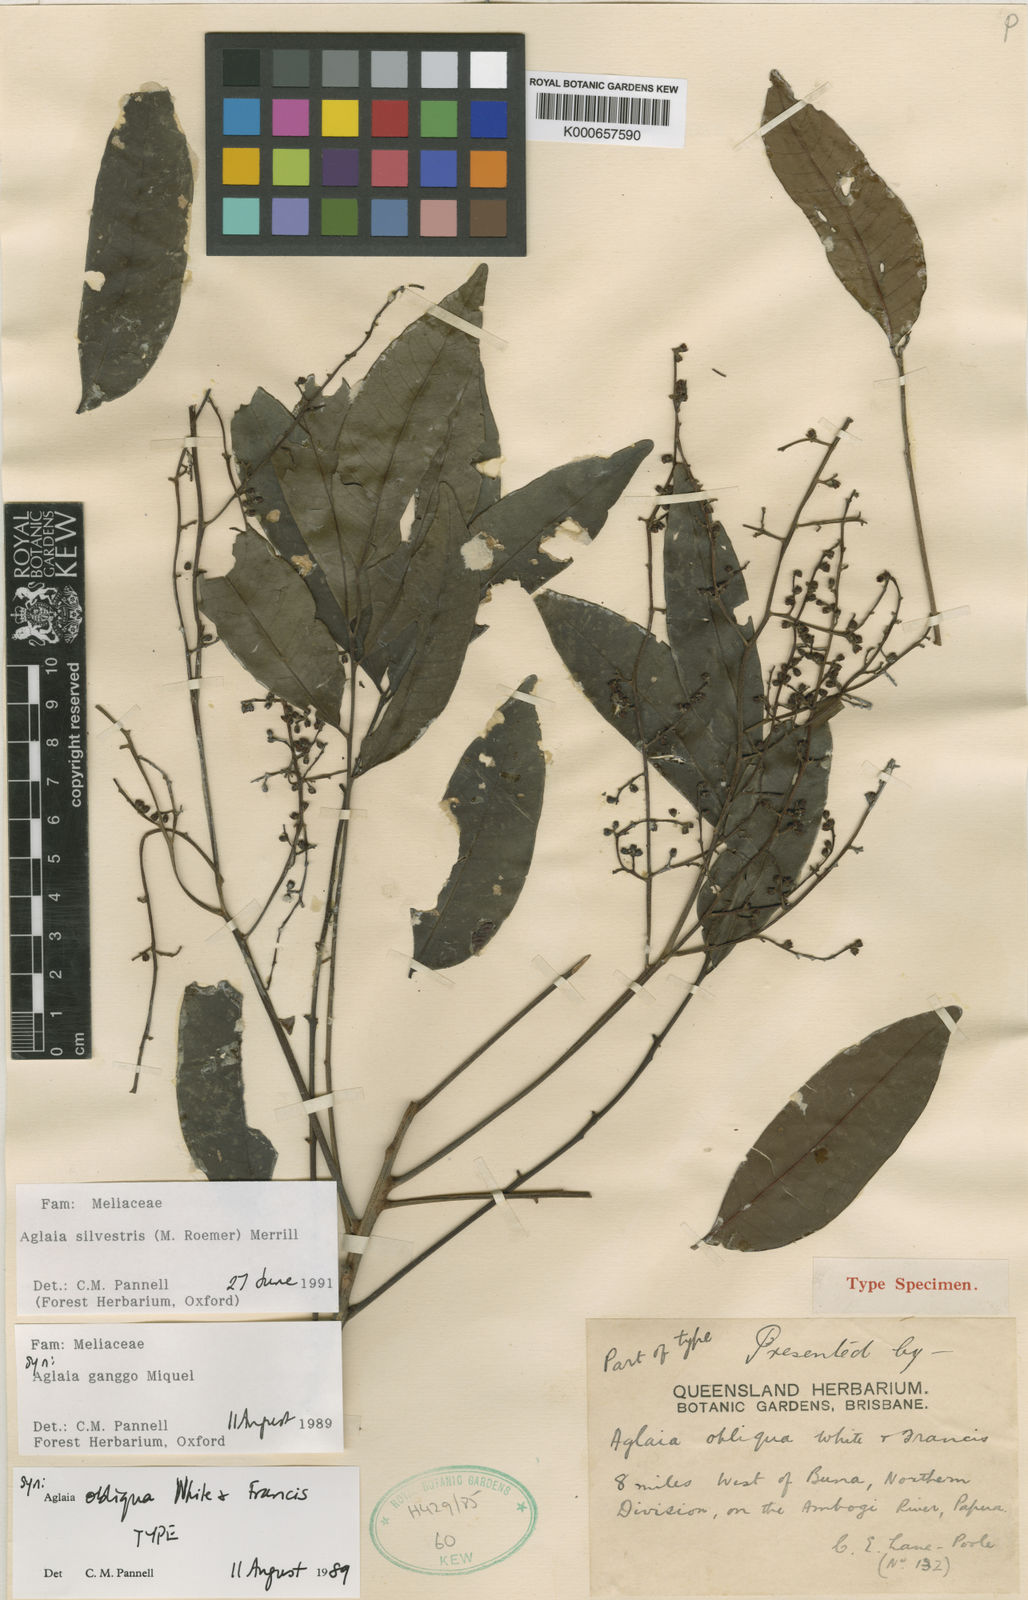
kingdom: Plantae
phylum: Tracheophyta
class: Magnoliopsida
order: Sapindales
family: Meliaceae
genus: Aglaia
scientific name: Aglaia silvestris
